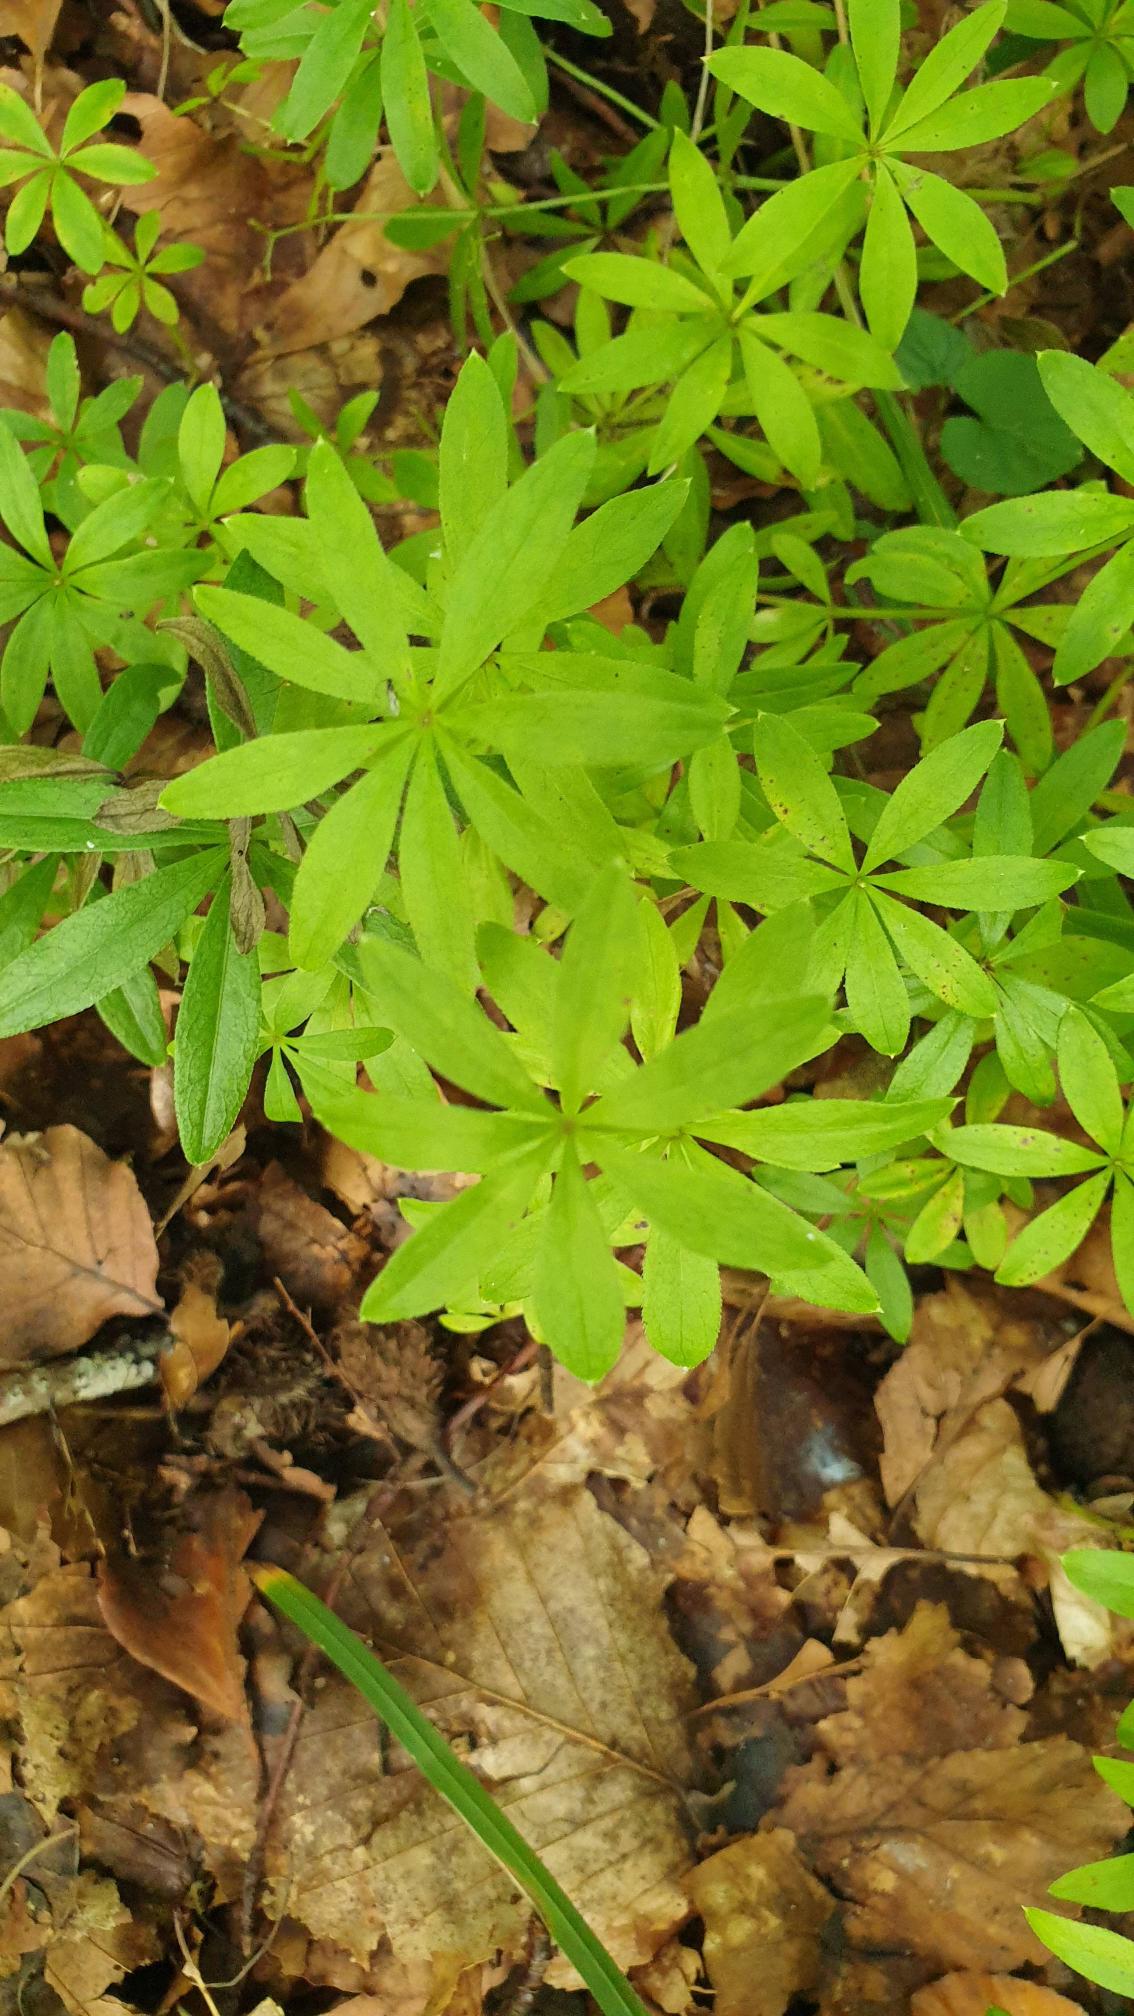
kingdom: Plantae
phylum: Tracheophyta
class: Magnoliopsida
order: Gentianales
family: Rubiaceae
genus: Galium
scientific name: Galium odoratum
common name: Skovmærke
